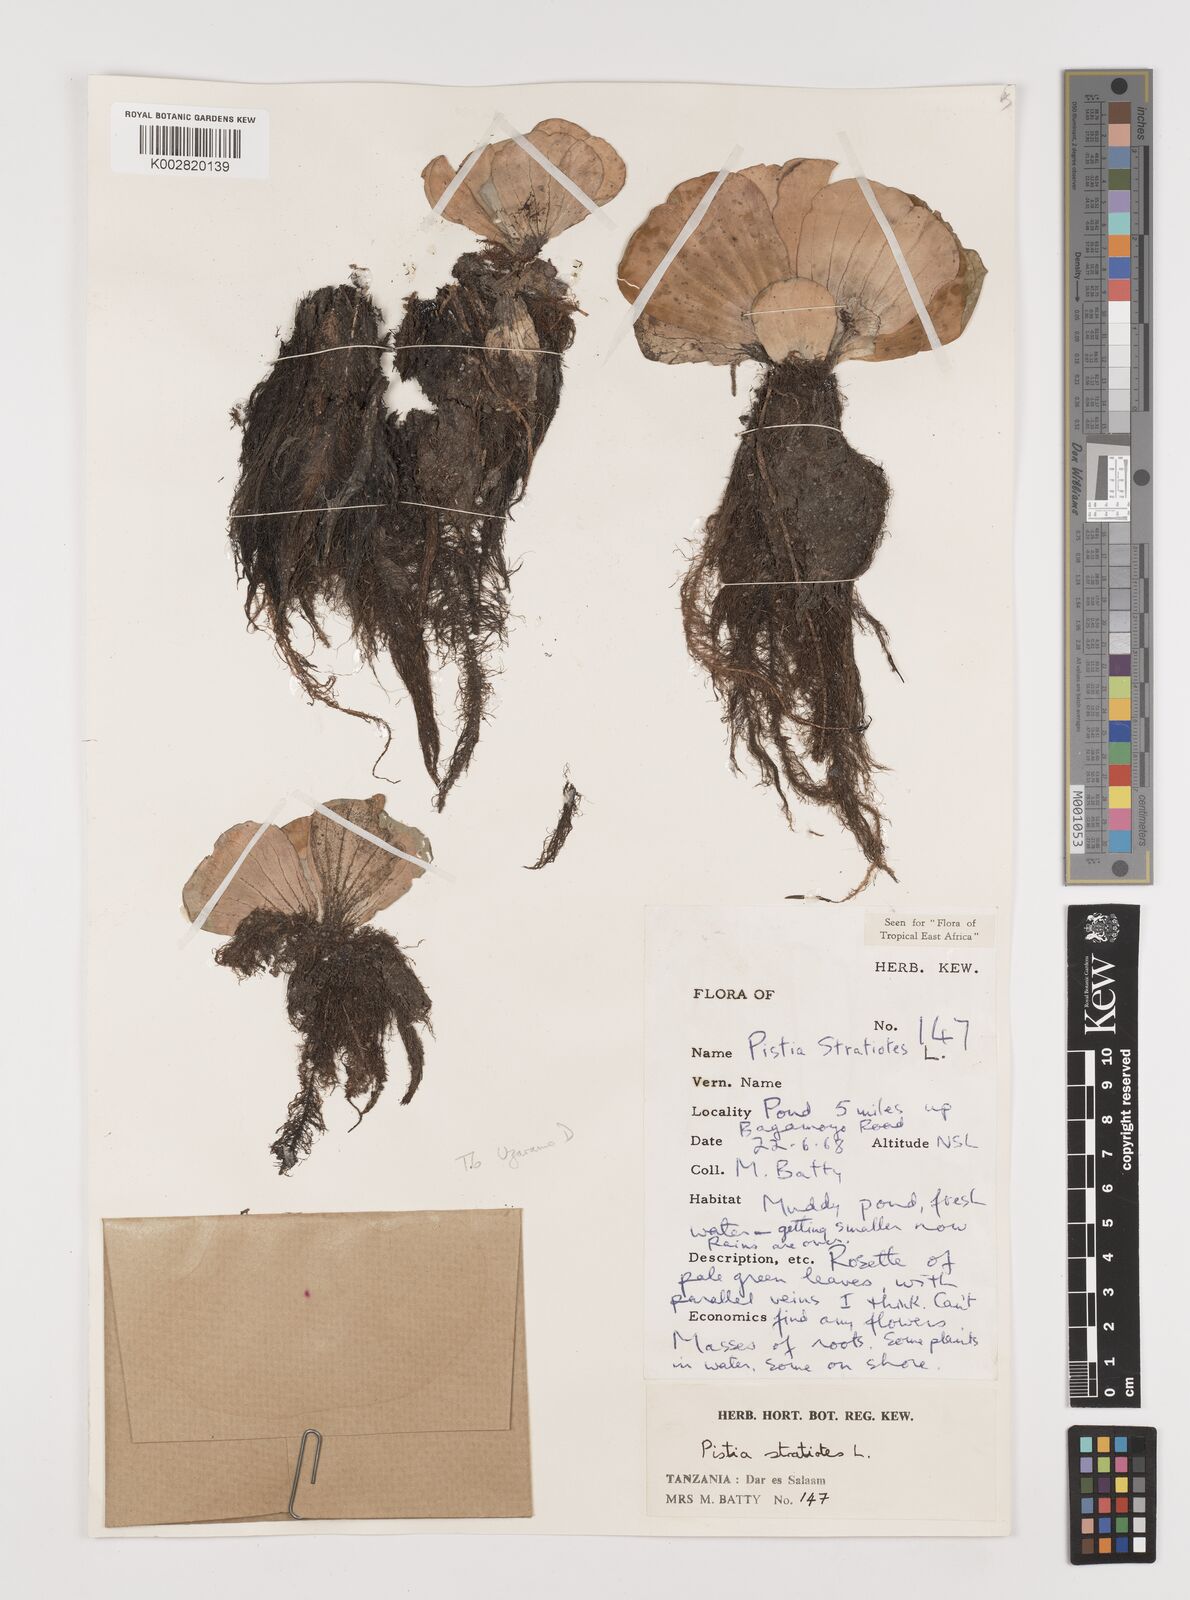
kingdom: Plantae
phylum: Tracheophyta
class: Liliopsida
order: Alismatales
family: Araceae
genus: Pistia
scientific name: Pistia stratiotes
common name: Water lettuce
